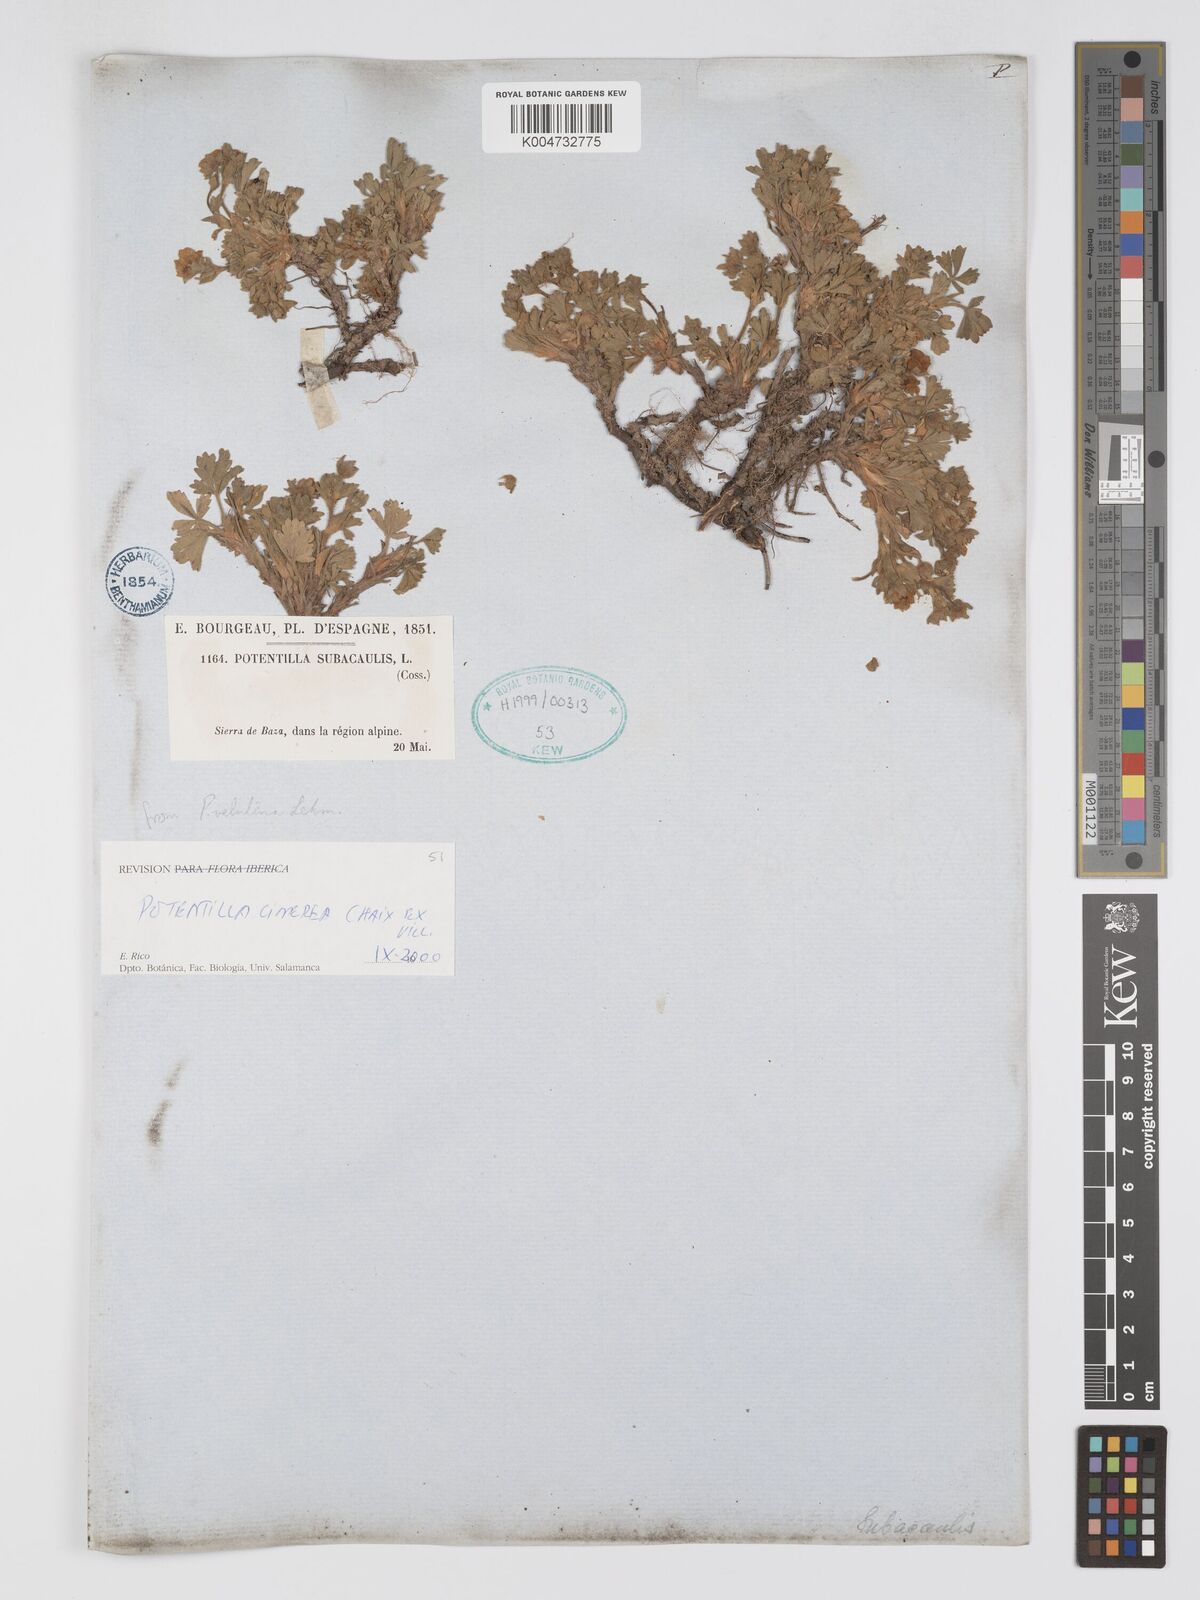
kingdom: Plantae
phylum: Tracheophyta
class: Magnoliopsida
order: Rosales
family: Rosaceae
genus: Potentilla
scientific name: Potentilla
